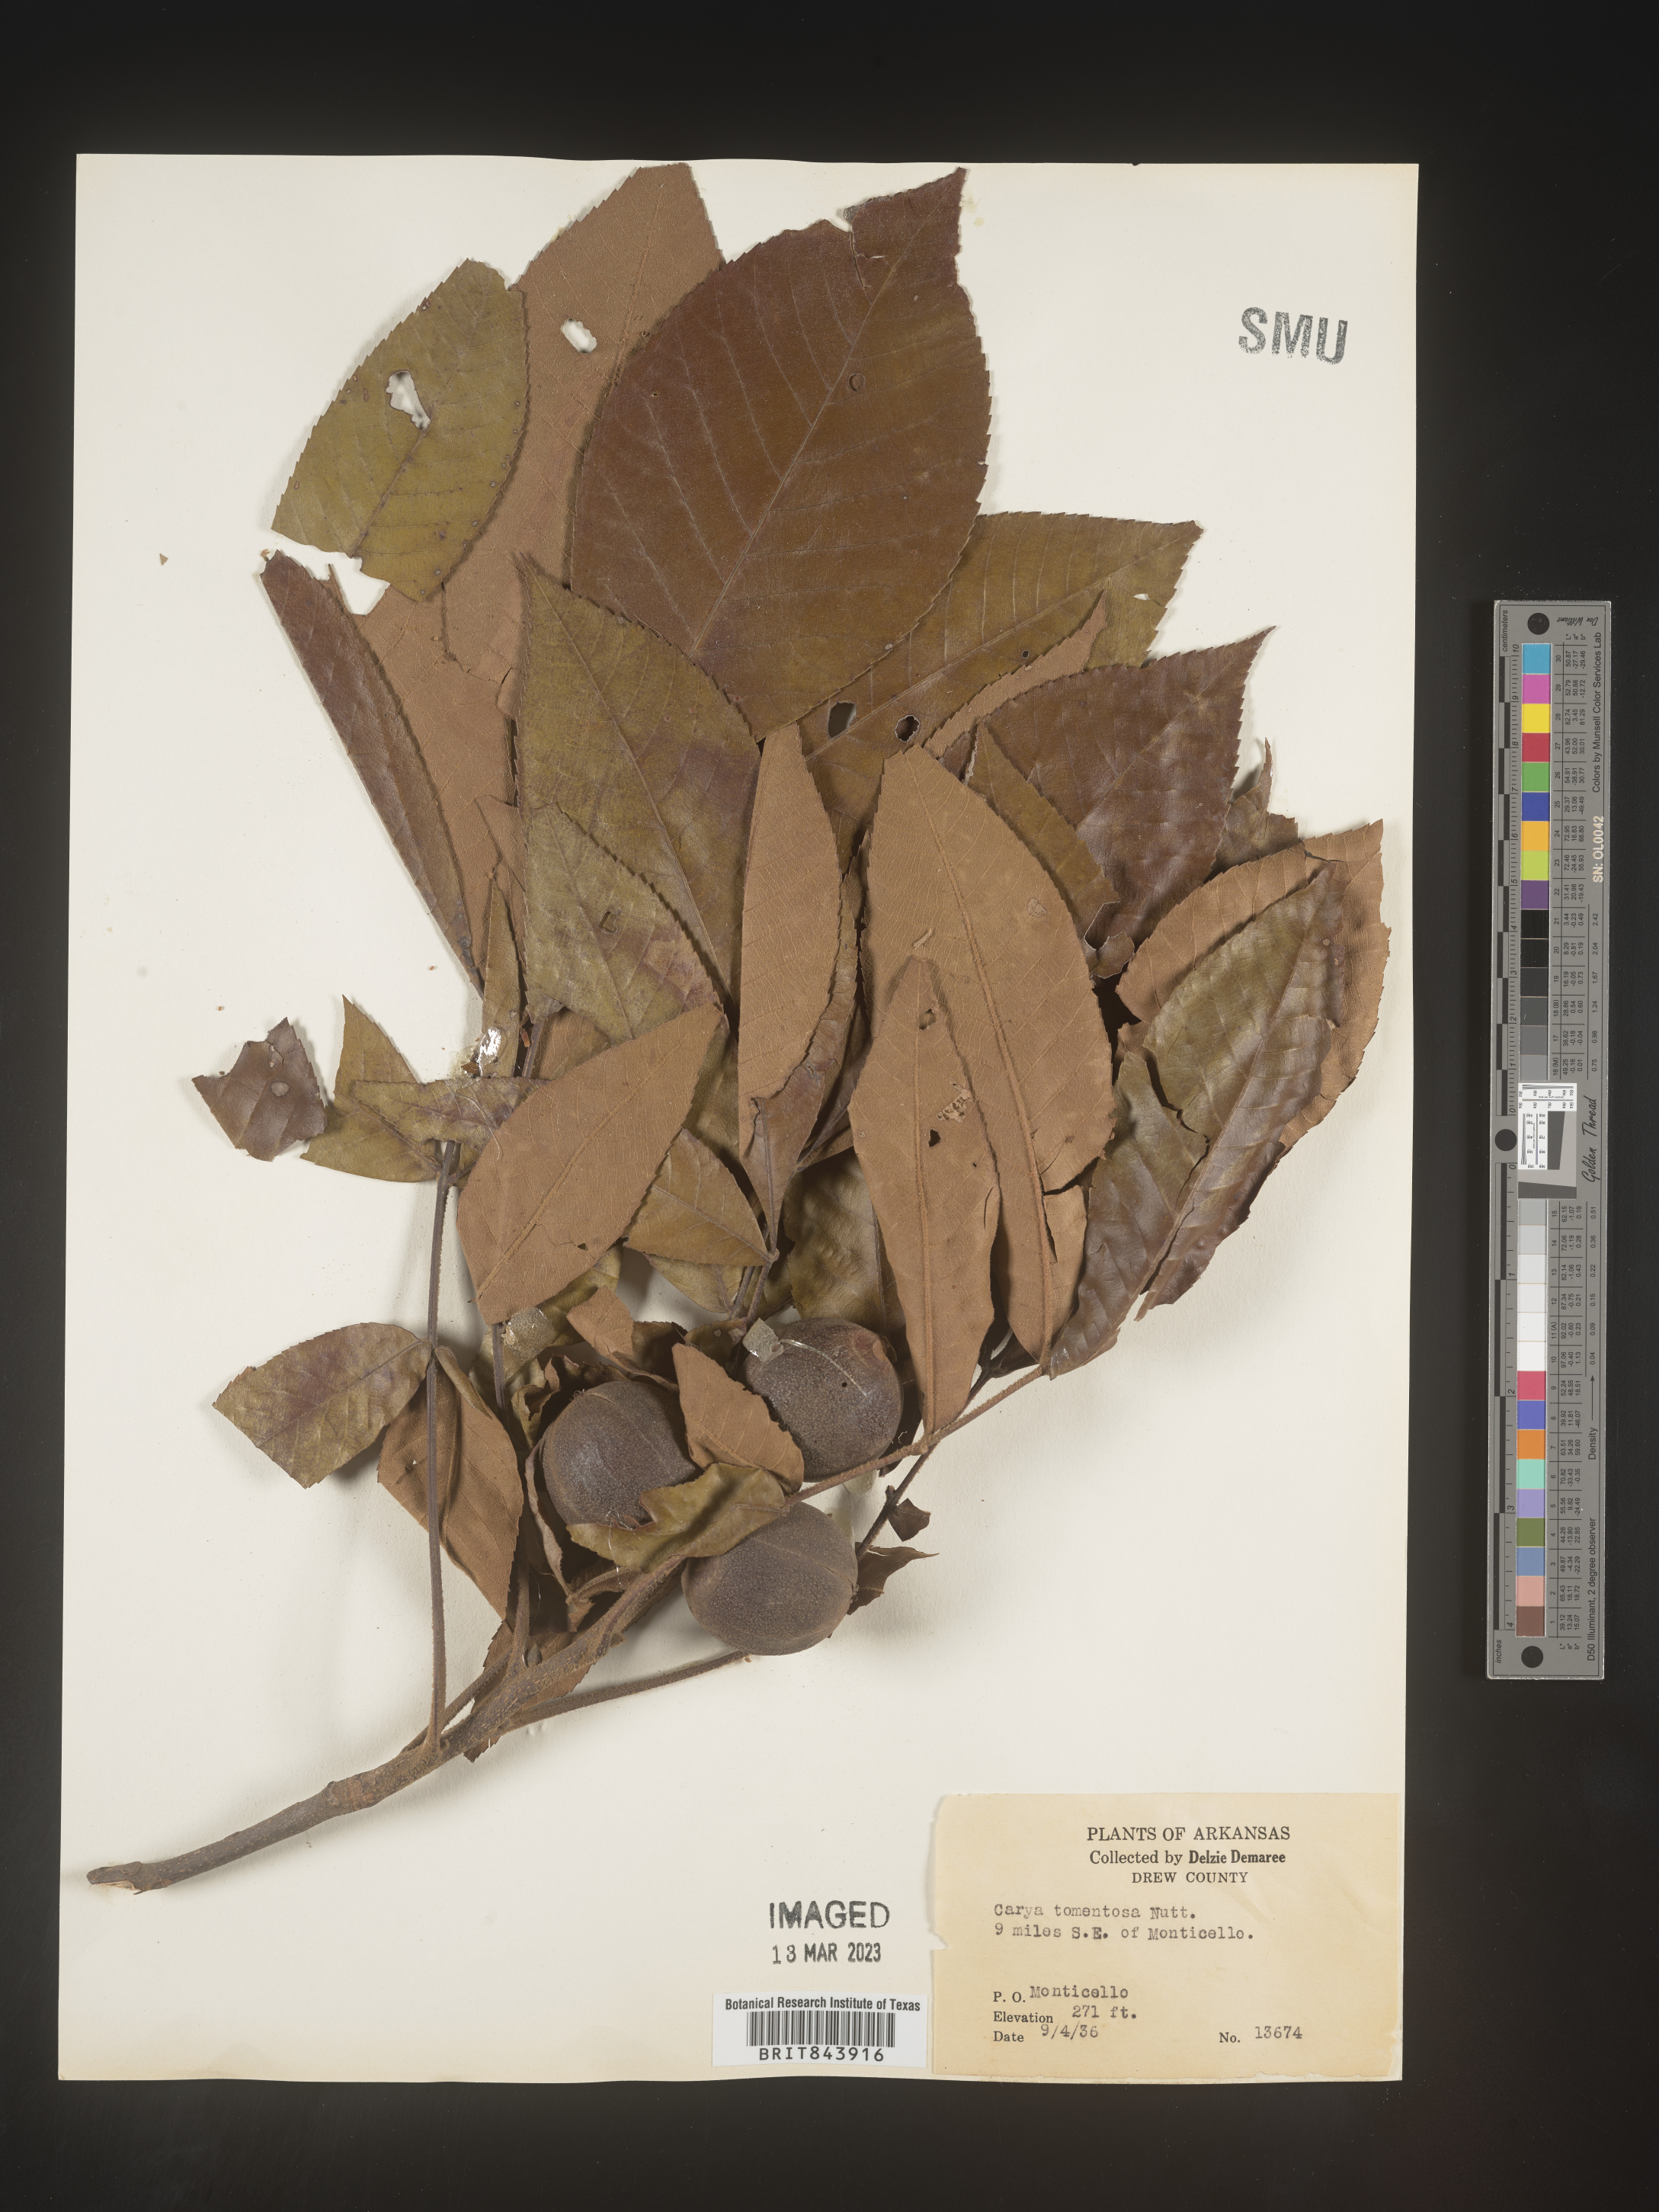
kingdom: Plantae
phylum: Tracheophyta
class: Magnoliopsida
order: Fagales
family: Juglandaceae
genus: Carya
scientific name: Carya alba
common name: Mockernut hickory
